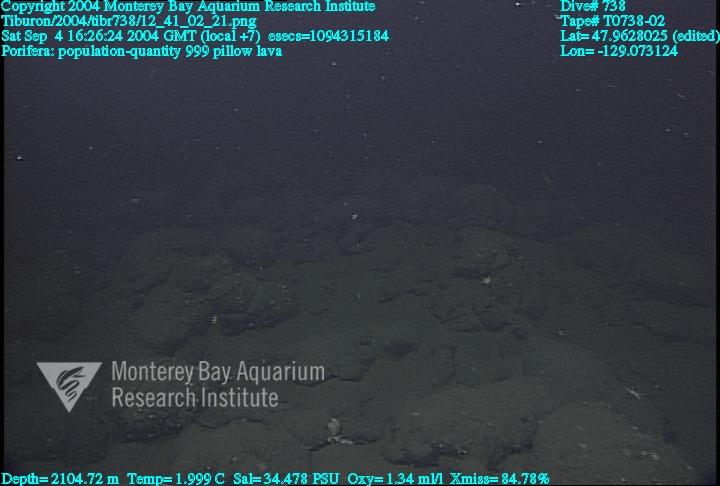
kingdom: Animalia
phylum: Porifera
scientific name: Porifera
